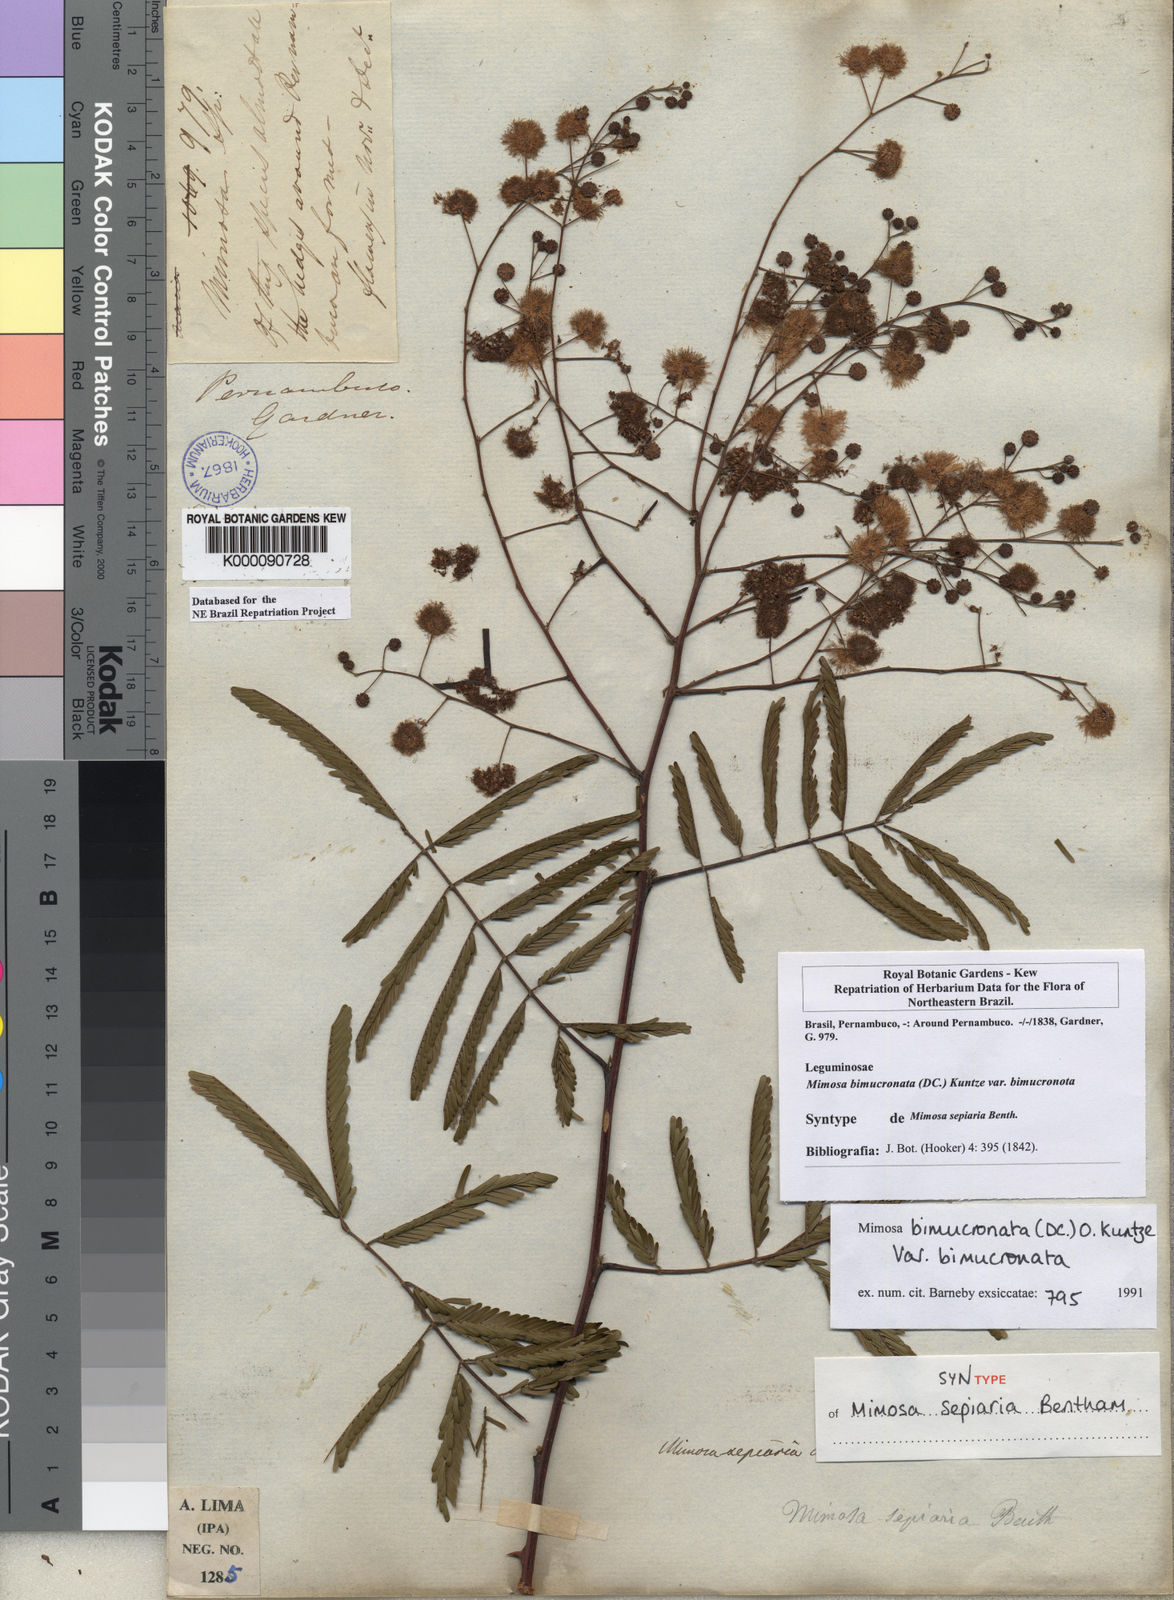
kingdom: Plantae
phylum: Tracheophyta
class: Magnoliopsida
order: Fabales
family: Fabaceae
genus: Mimosa
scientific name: Mimosa bimucronata
